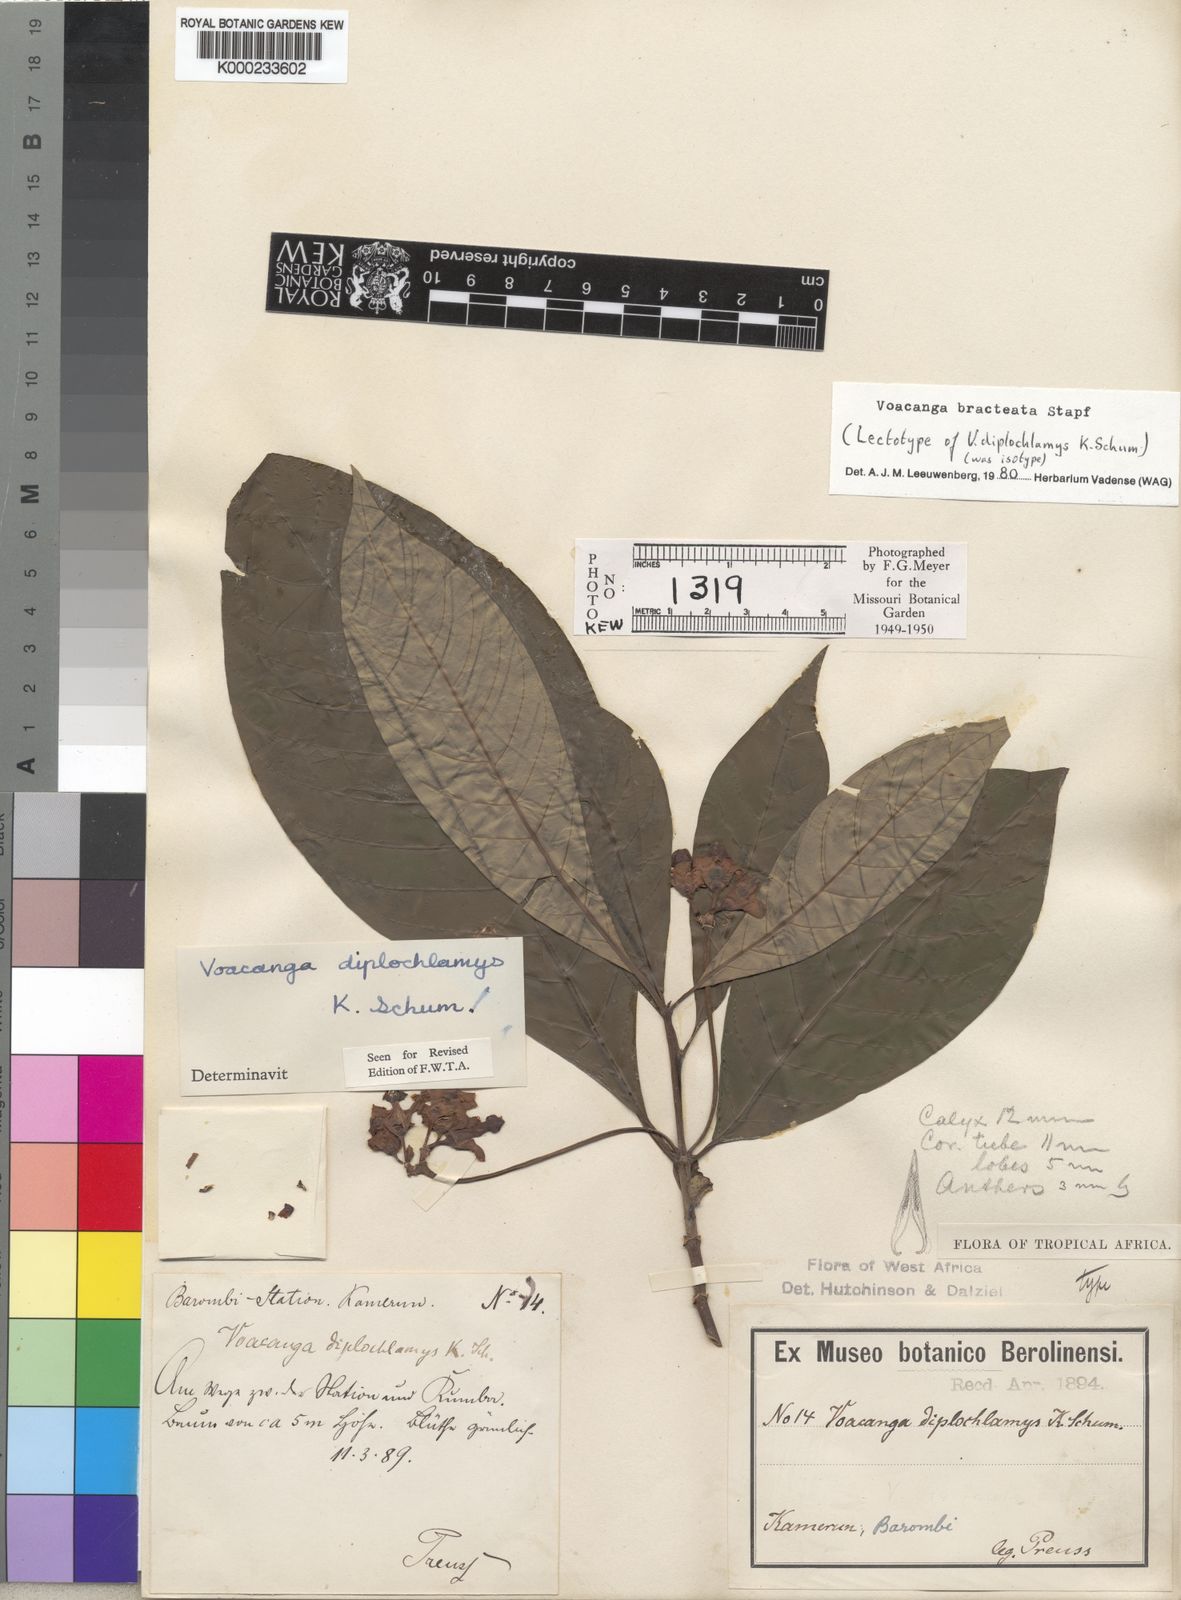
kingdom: Plantae
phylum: Tracheophyta
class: Magnoliopsida
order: Gentianales
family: Apocynaceae
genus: Voacanga
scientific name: Voacanga bracteata
